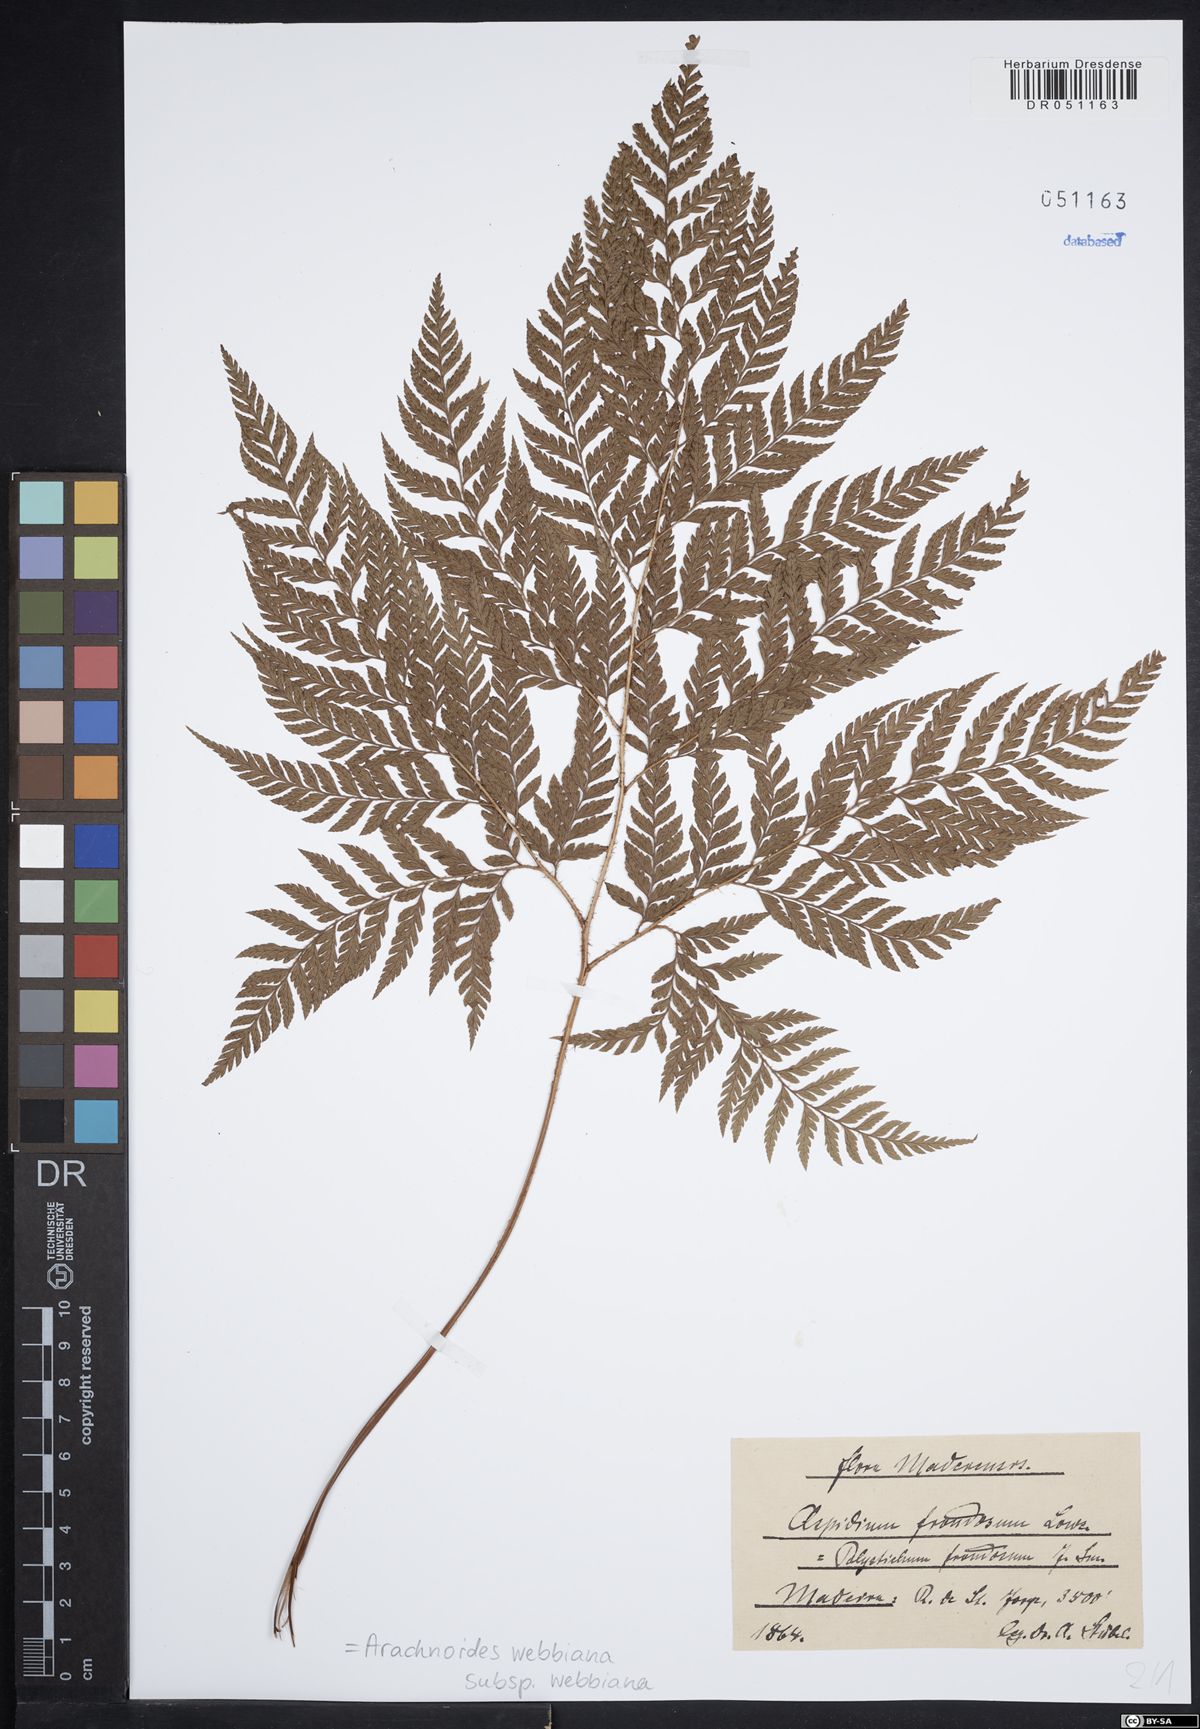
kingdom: Plantae
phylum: Tracheophyta
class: Polypodiopsida
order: Polypodiales
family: Dryopteridaceae
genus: Arachniodes
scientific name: Arachniodes webbiana
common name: Madeira holly fern
